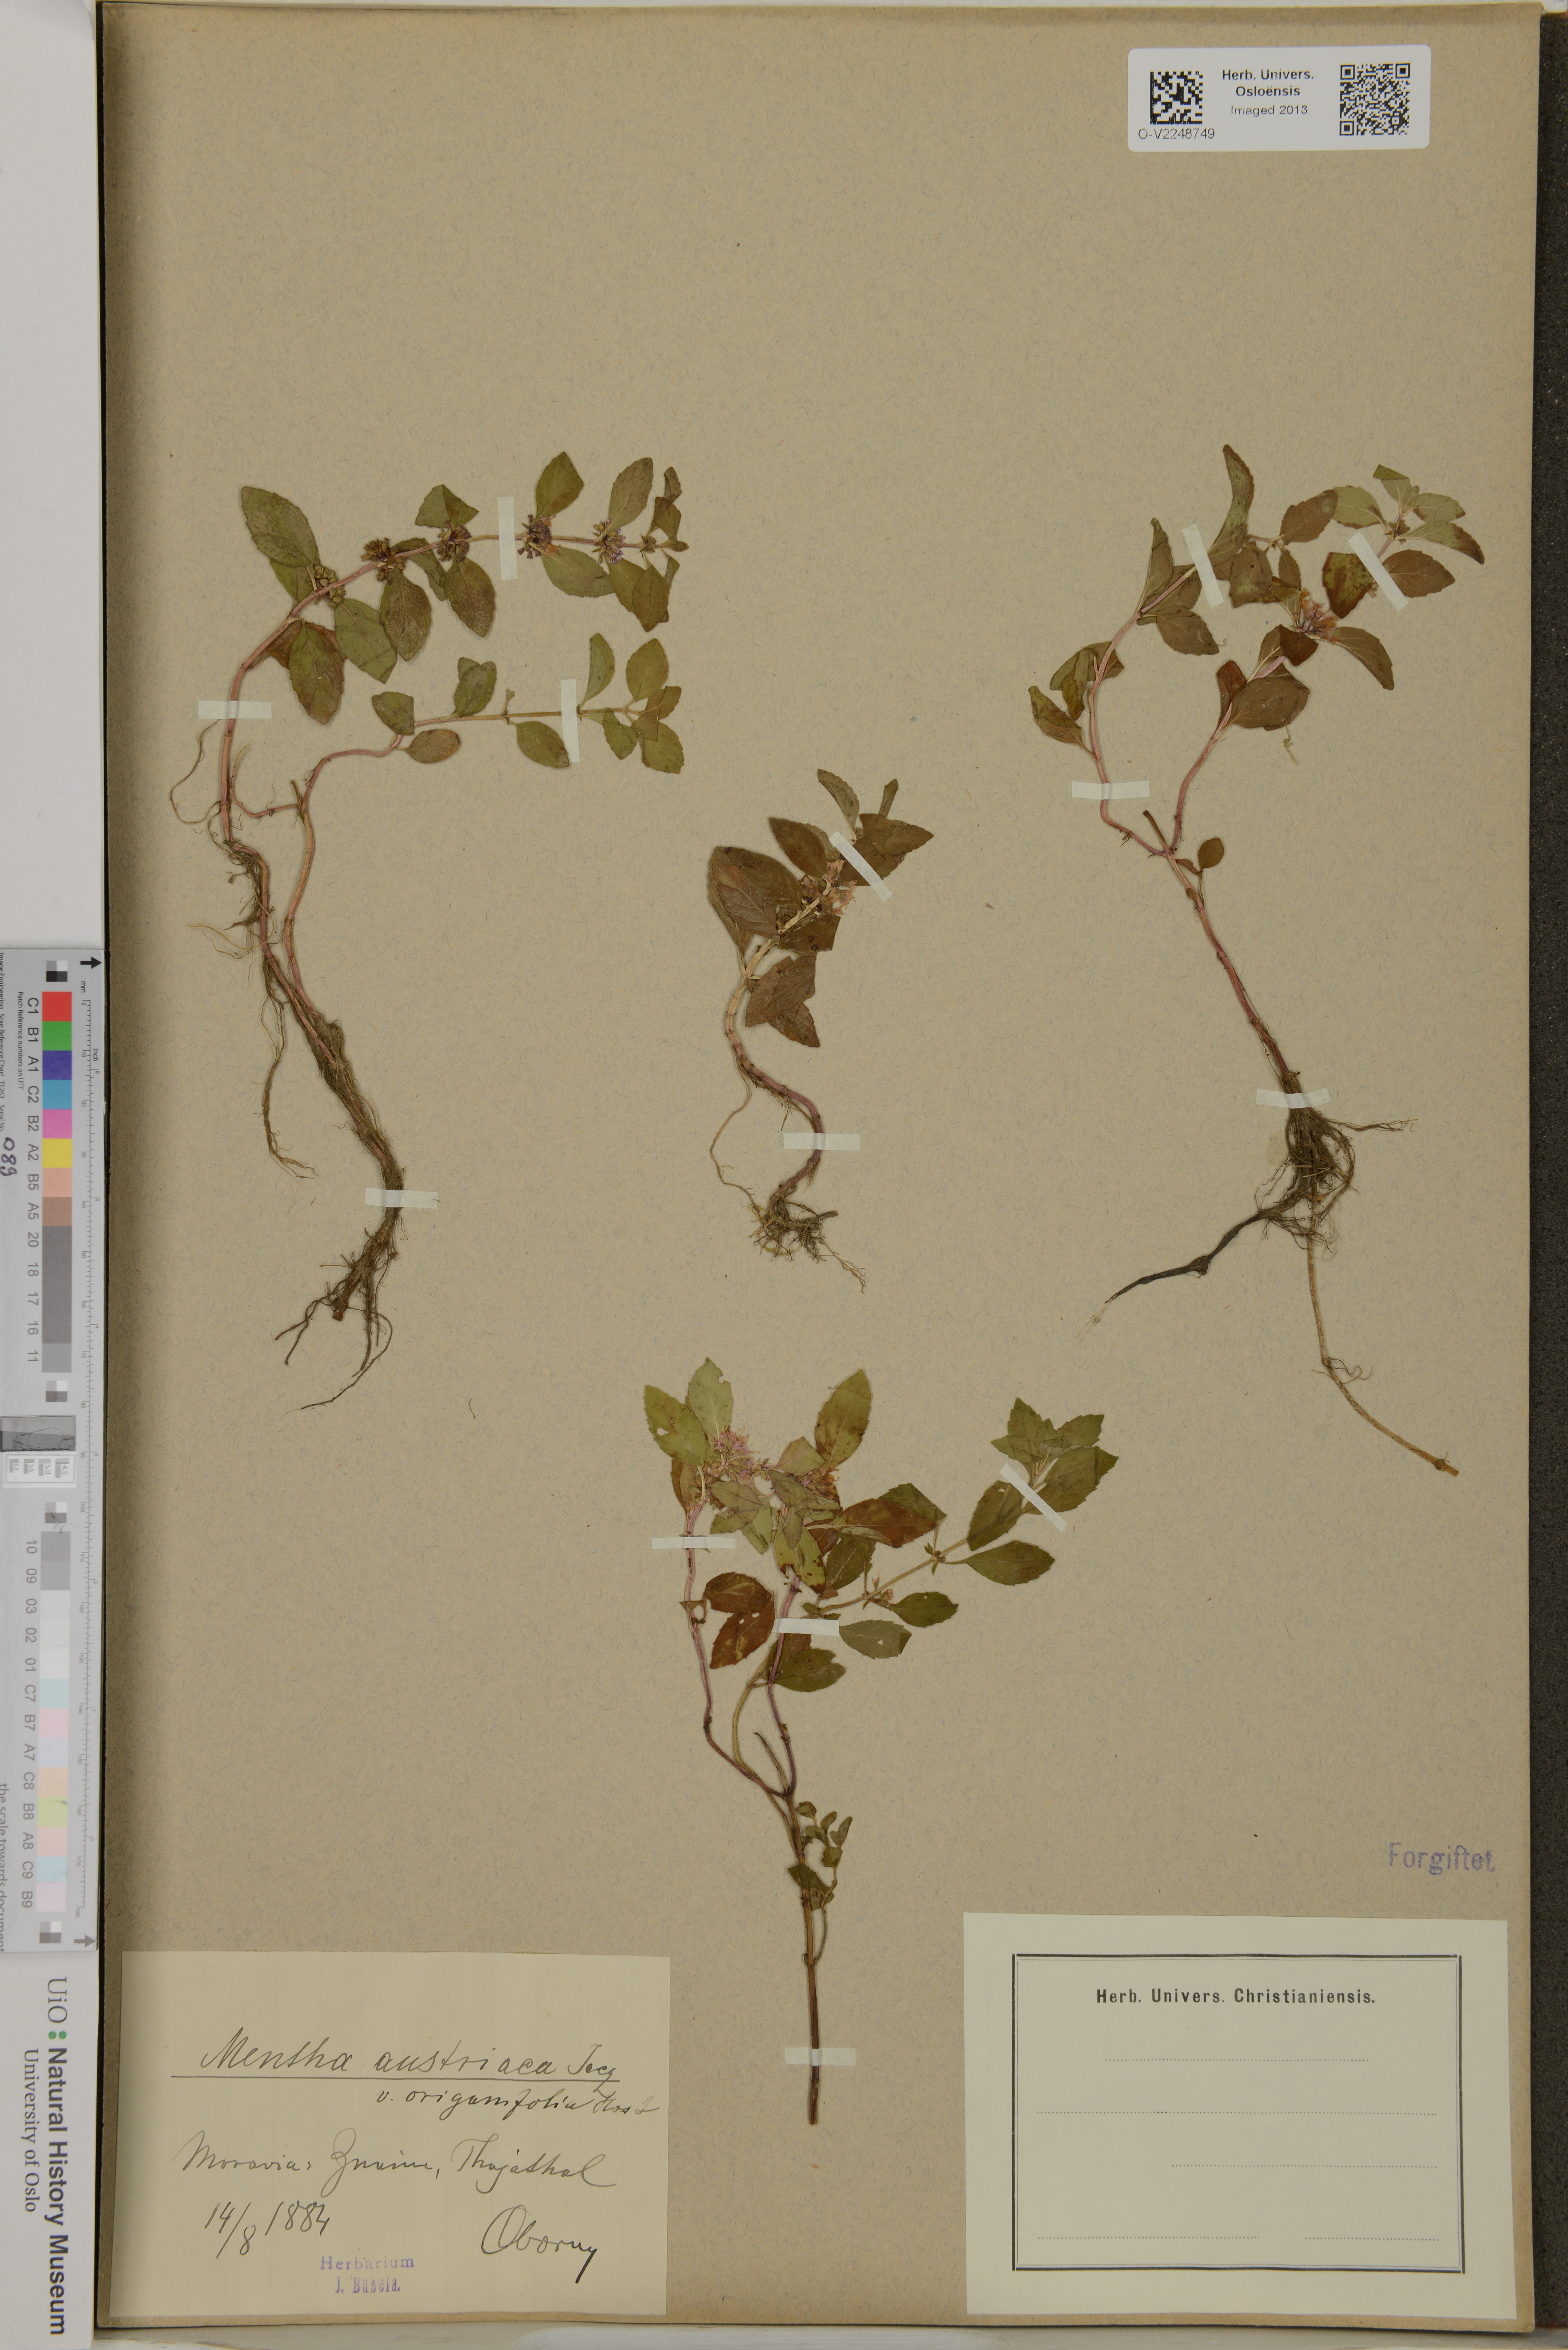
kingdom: Plantae
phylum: Tracheophyta
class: Magnoliopsida
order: Lamiales
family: Lamiaceae
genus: Mentha
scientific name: Mentha arvensis
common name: Corn mint
